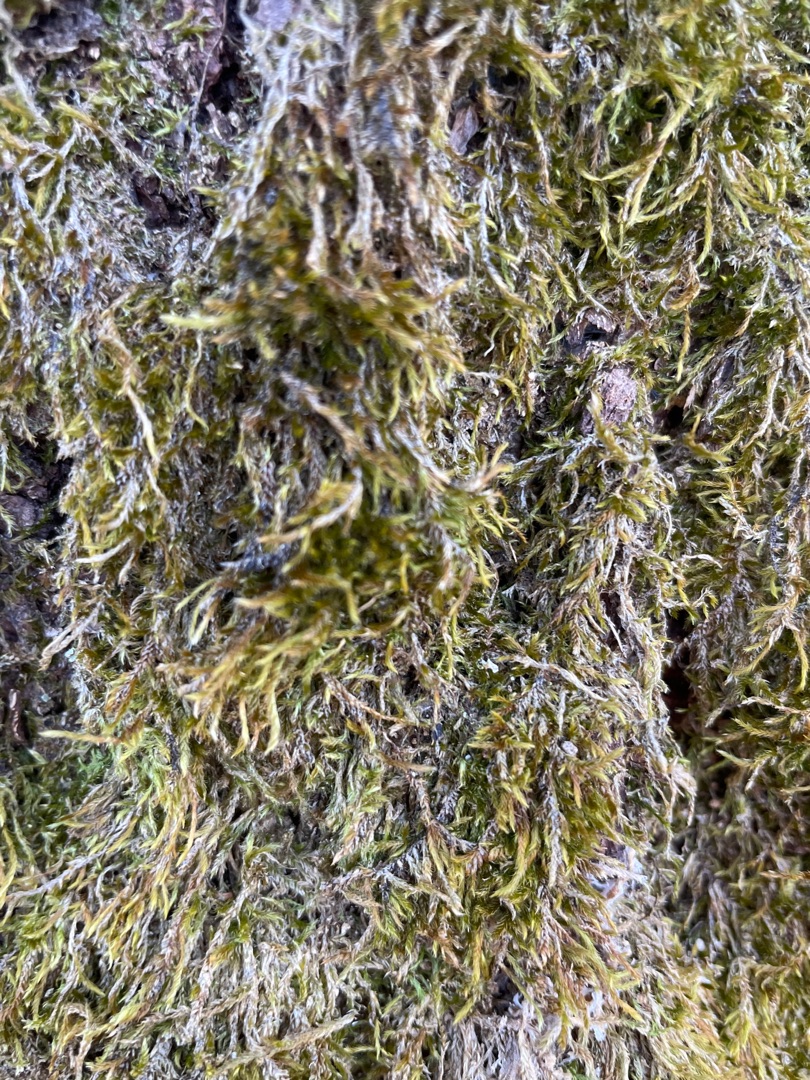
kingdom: Plantae
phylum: Bryophyta
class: Bryopsida
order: Hypnales
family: Hypnaceae
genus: Hypnum
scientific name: Hypnum
